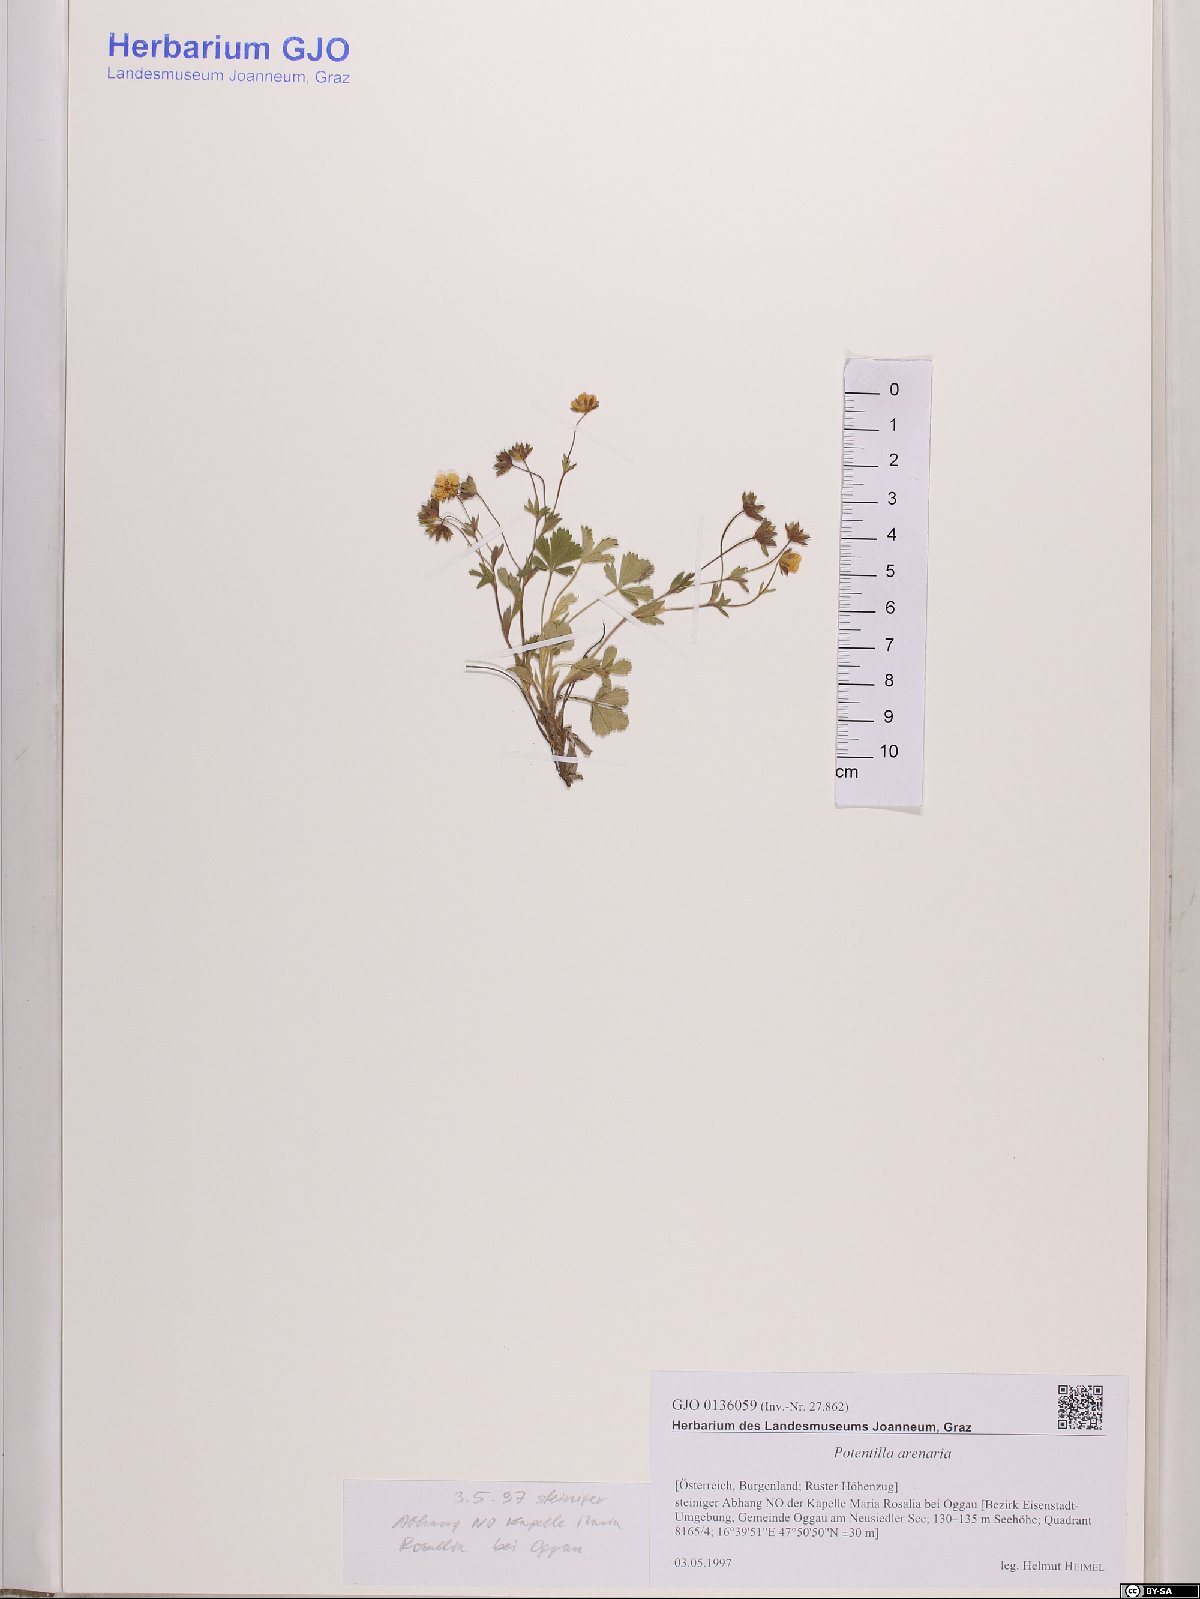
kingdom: Plantae
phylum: Tracheophyta
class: Magnoliopsida
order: Rosales
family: Rosaceae
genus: Potentilla
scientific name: Potentilla cinerea
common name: Ashy cinquefoil
